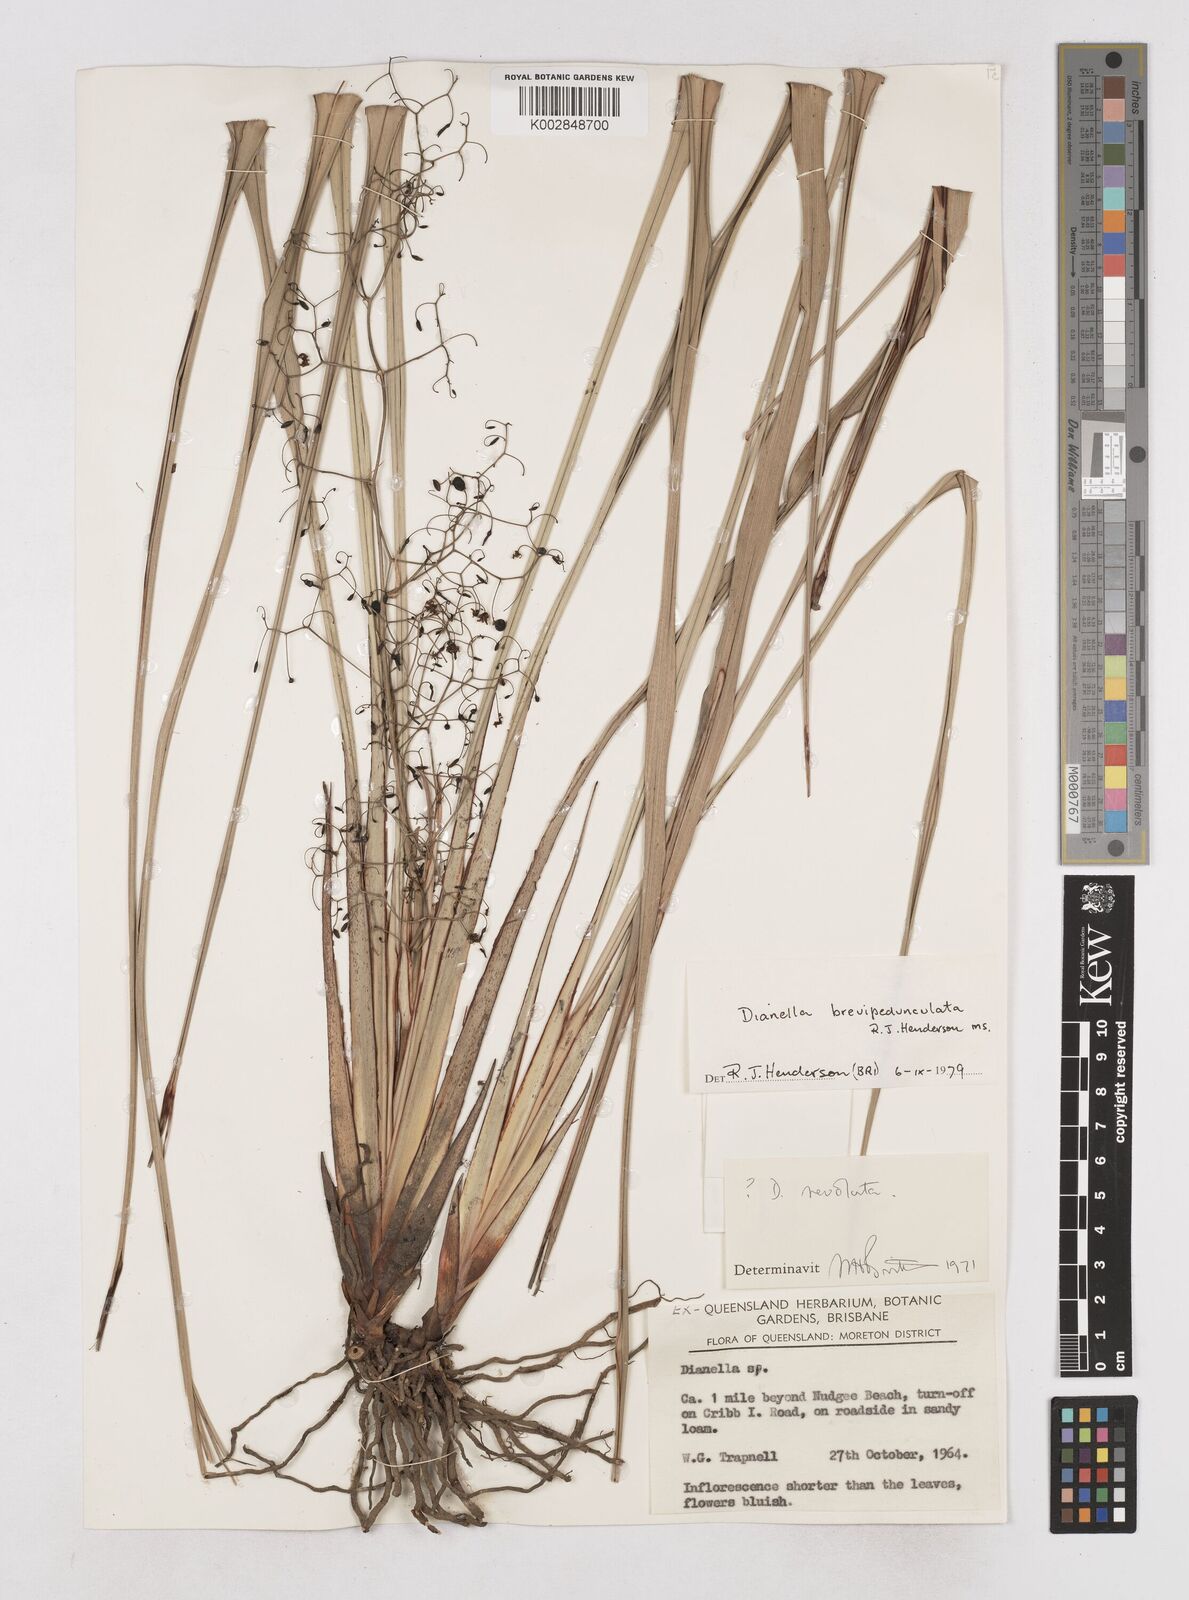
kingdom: Plantae
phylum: Tracheophyta
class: Liliopsida
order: Asparagales
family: Asphodelaceae
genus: Dianella
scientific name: Dianella brevipedunculata
